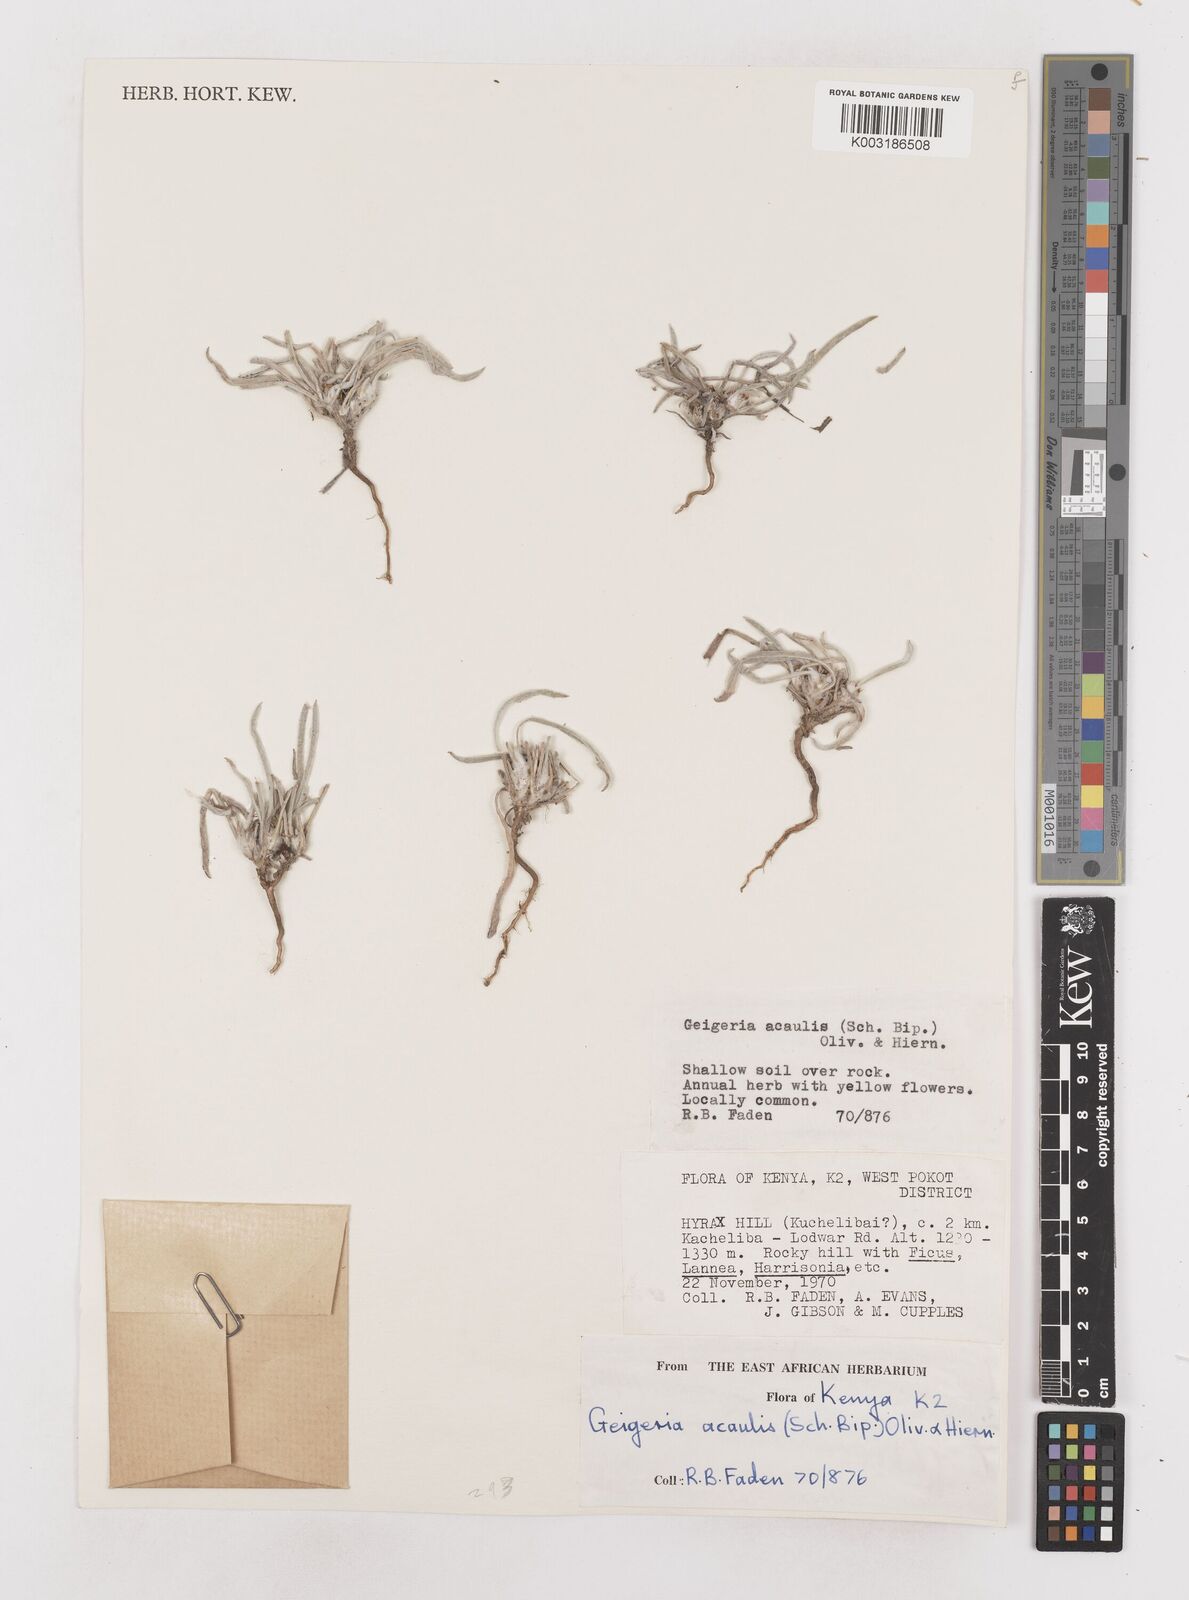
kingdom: Plantae
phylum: Tracheophyta
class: Magnoliopsida
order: Asterales
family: Asteraceae
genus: Geigeria
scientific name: Geigeria acaulis
